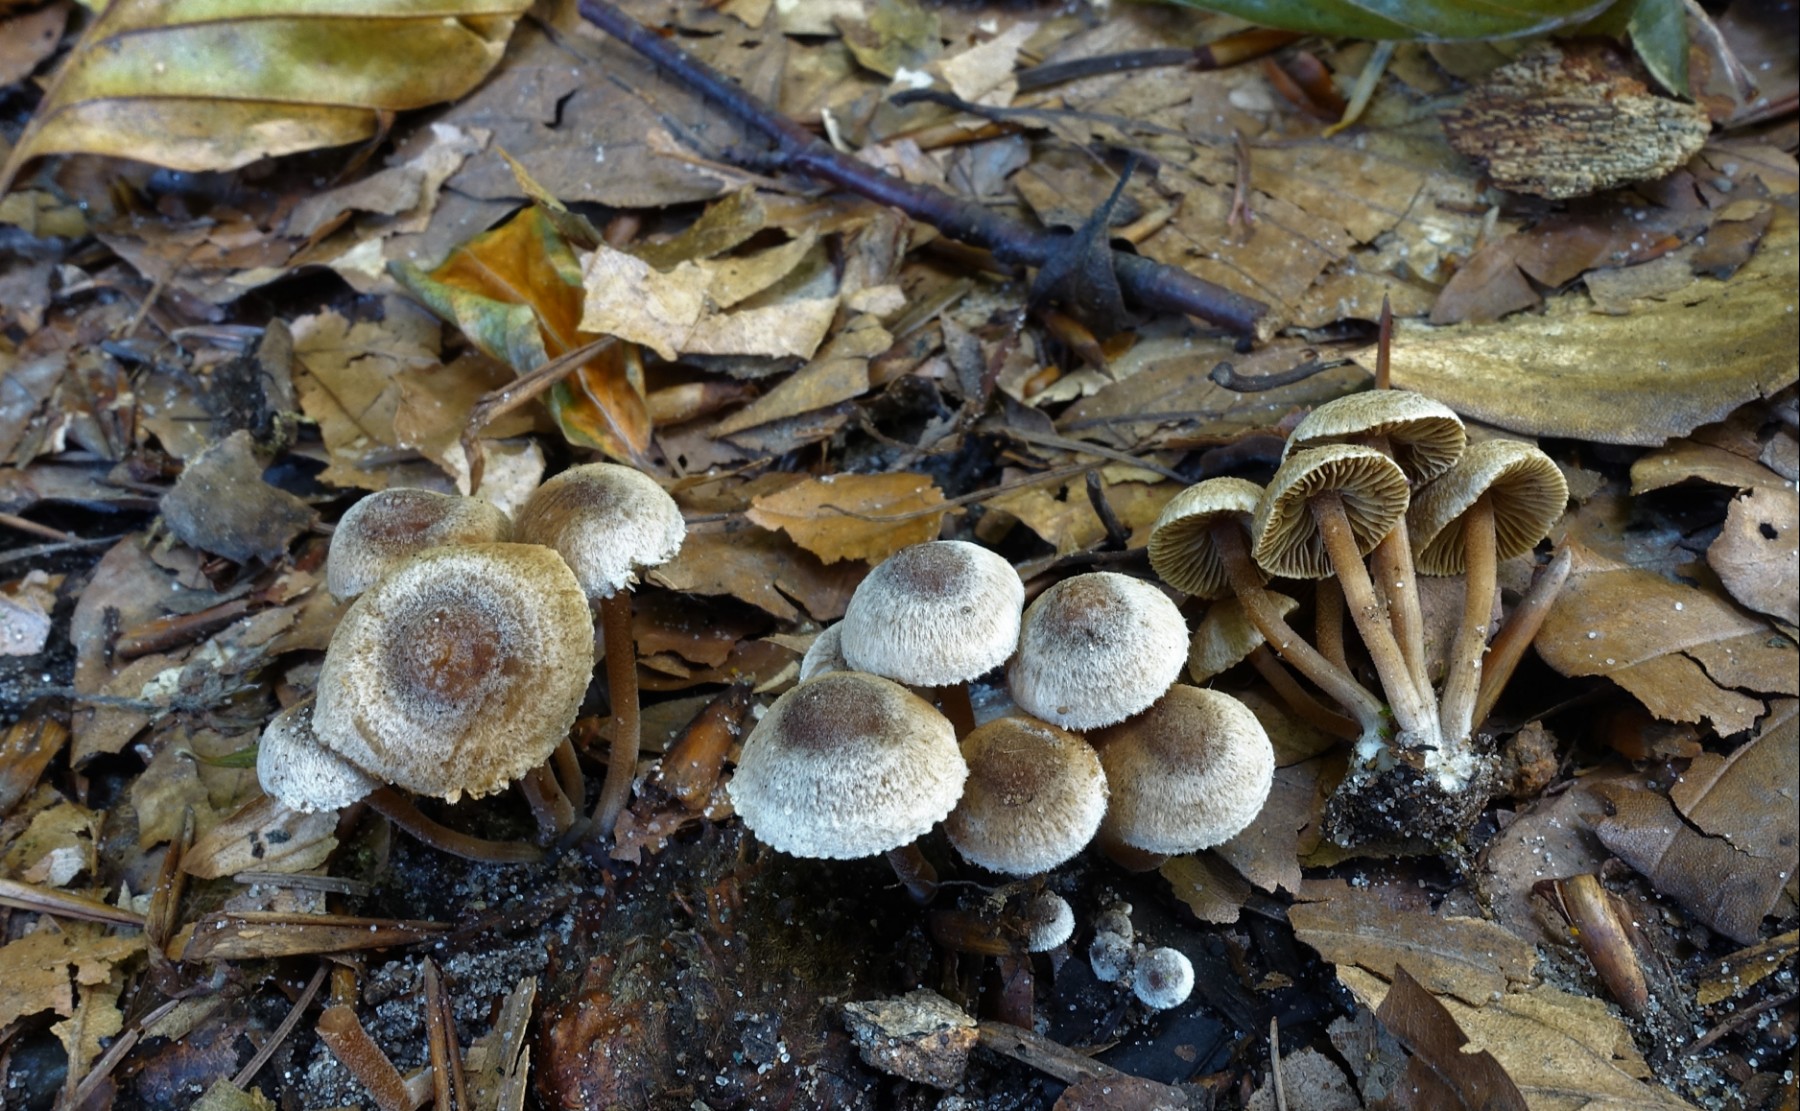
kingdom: Fungi
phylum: Basidiomycota
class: Agaricomycetes
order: Agaricales
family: Inocybaceae
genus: Inocybe
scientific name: Inocybe petiginosa
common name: liden trævlhat
